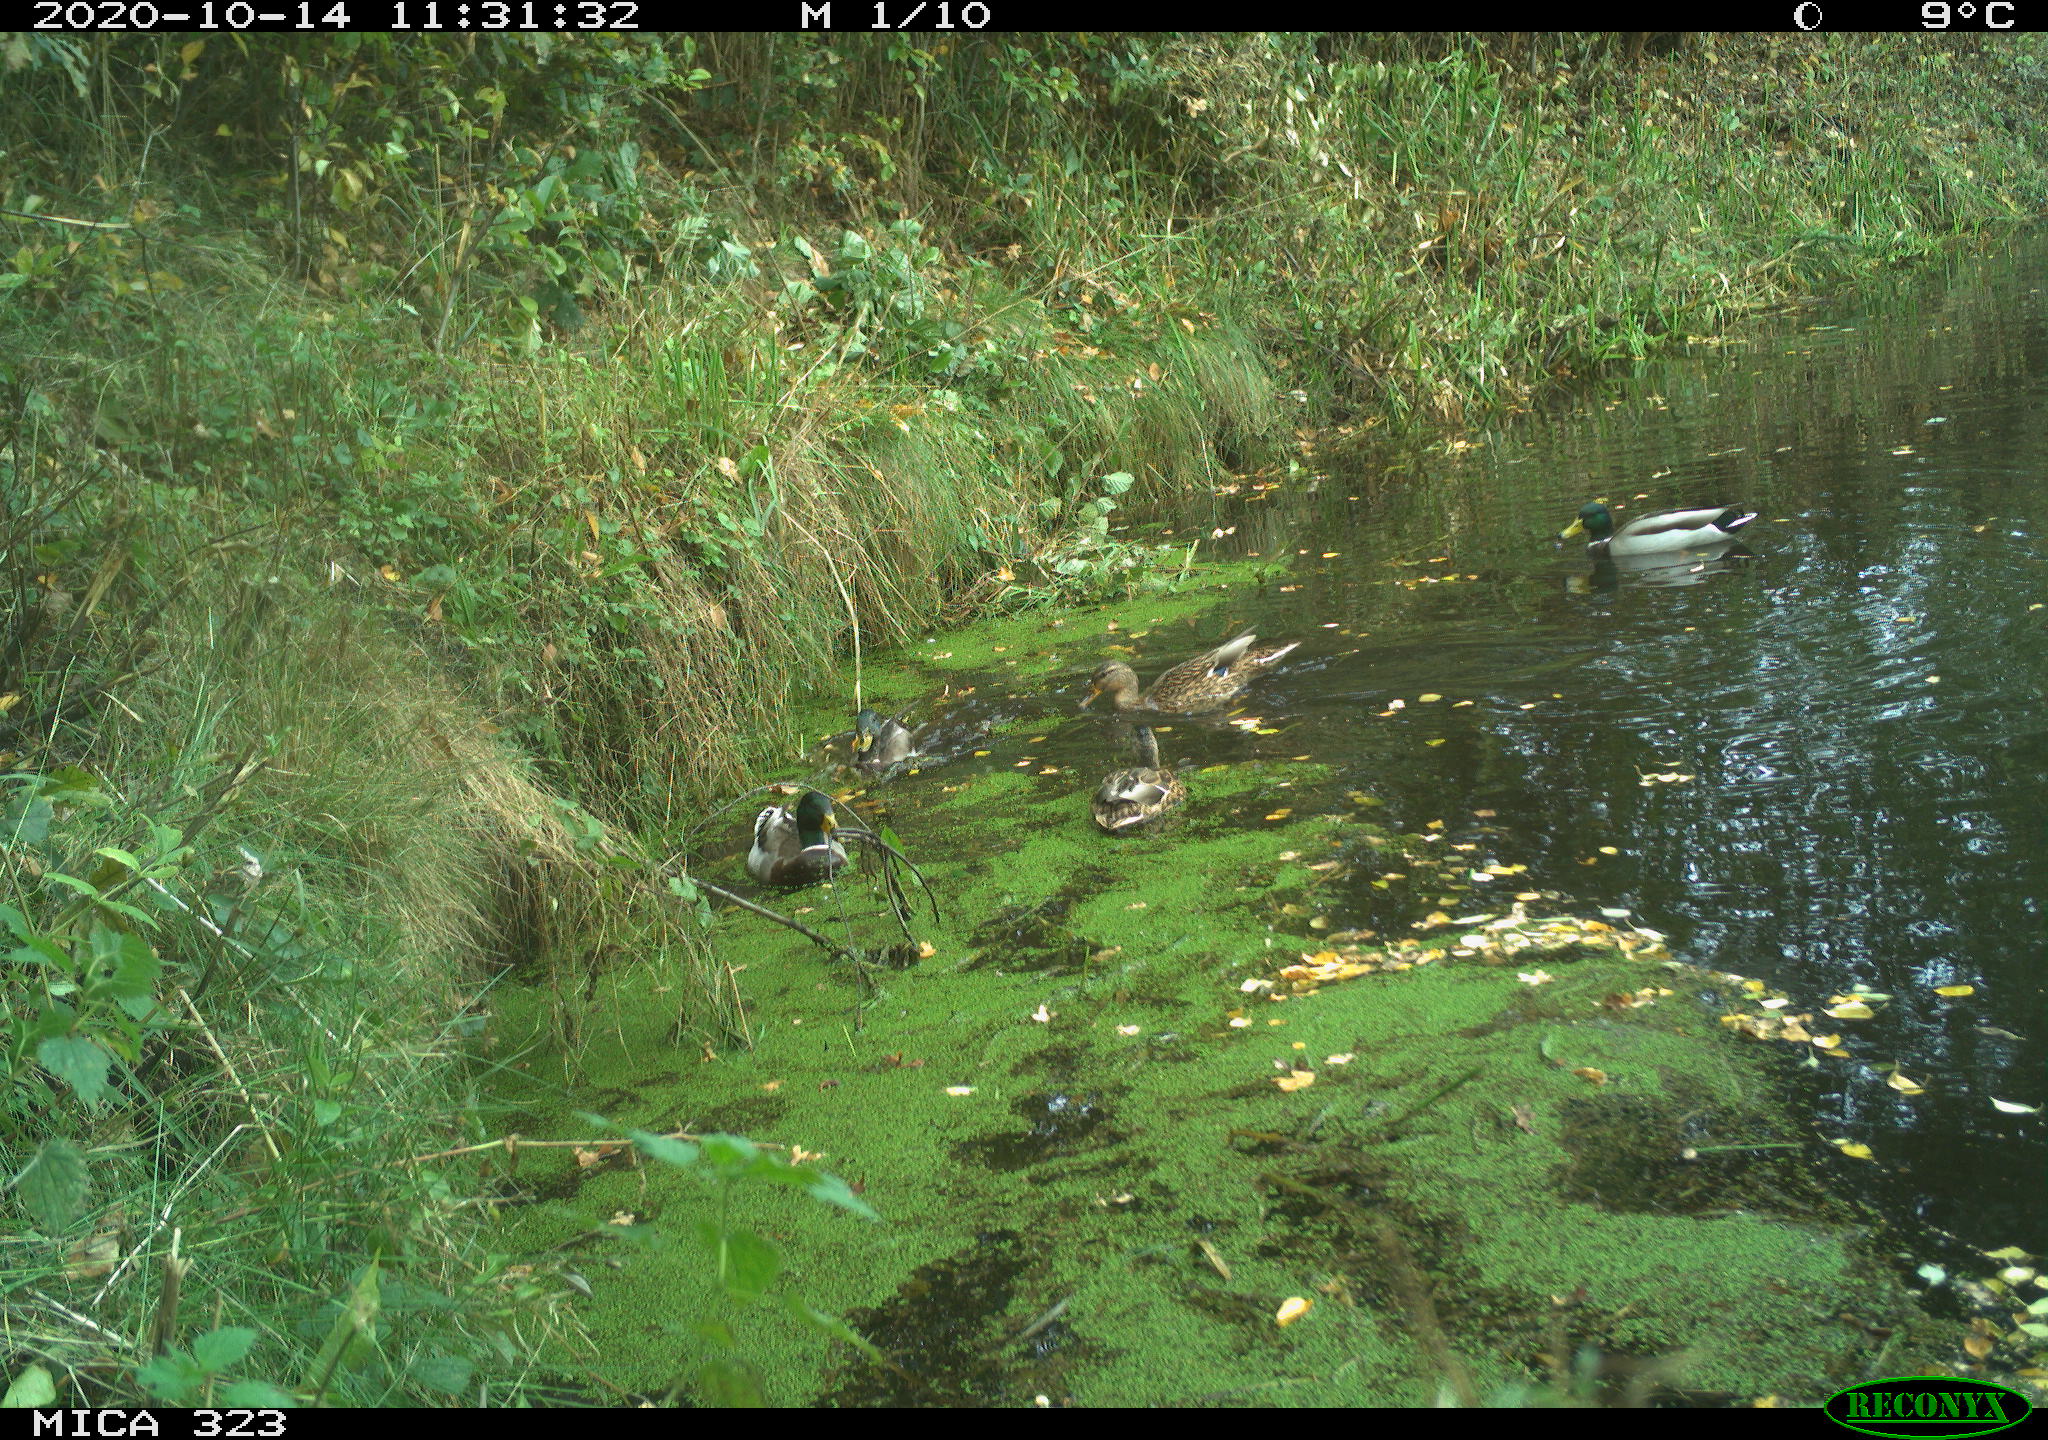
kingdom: Animalia
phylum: Chordata
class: Aves
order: Anseriformes
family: Anatidae
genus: Anas
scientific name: Anas platyrhynchos
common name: Mallard
